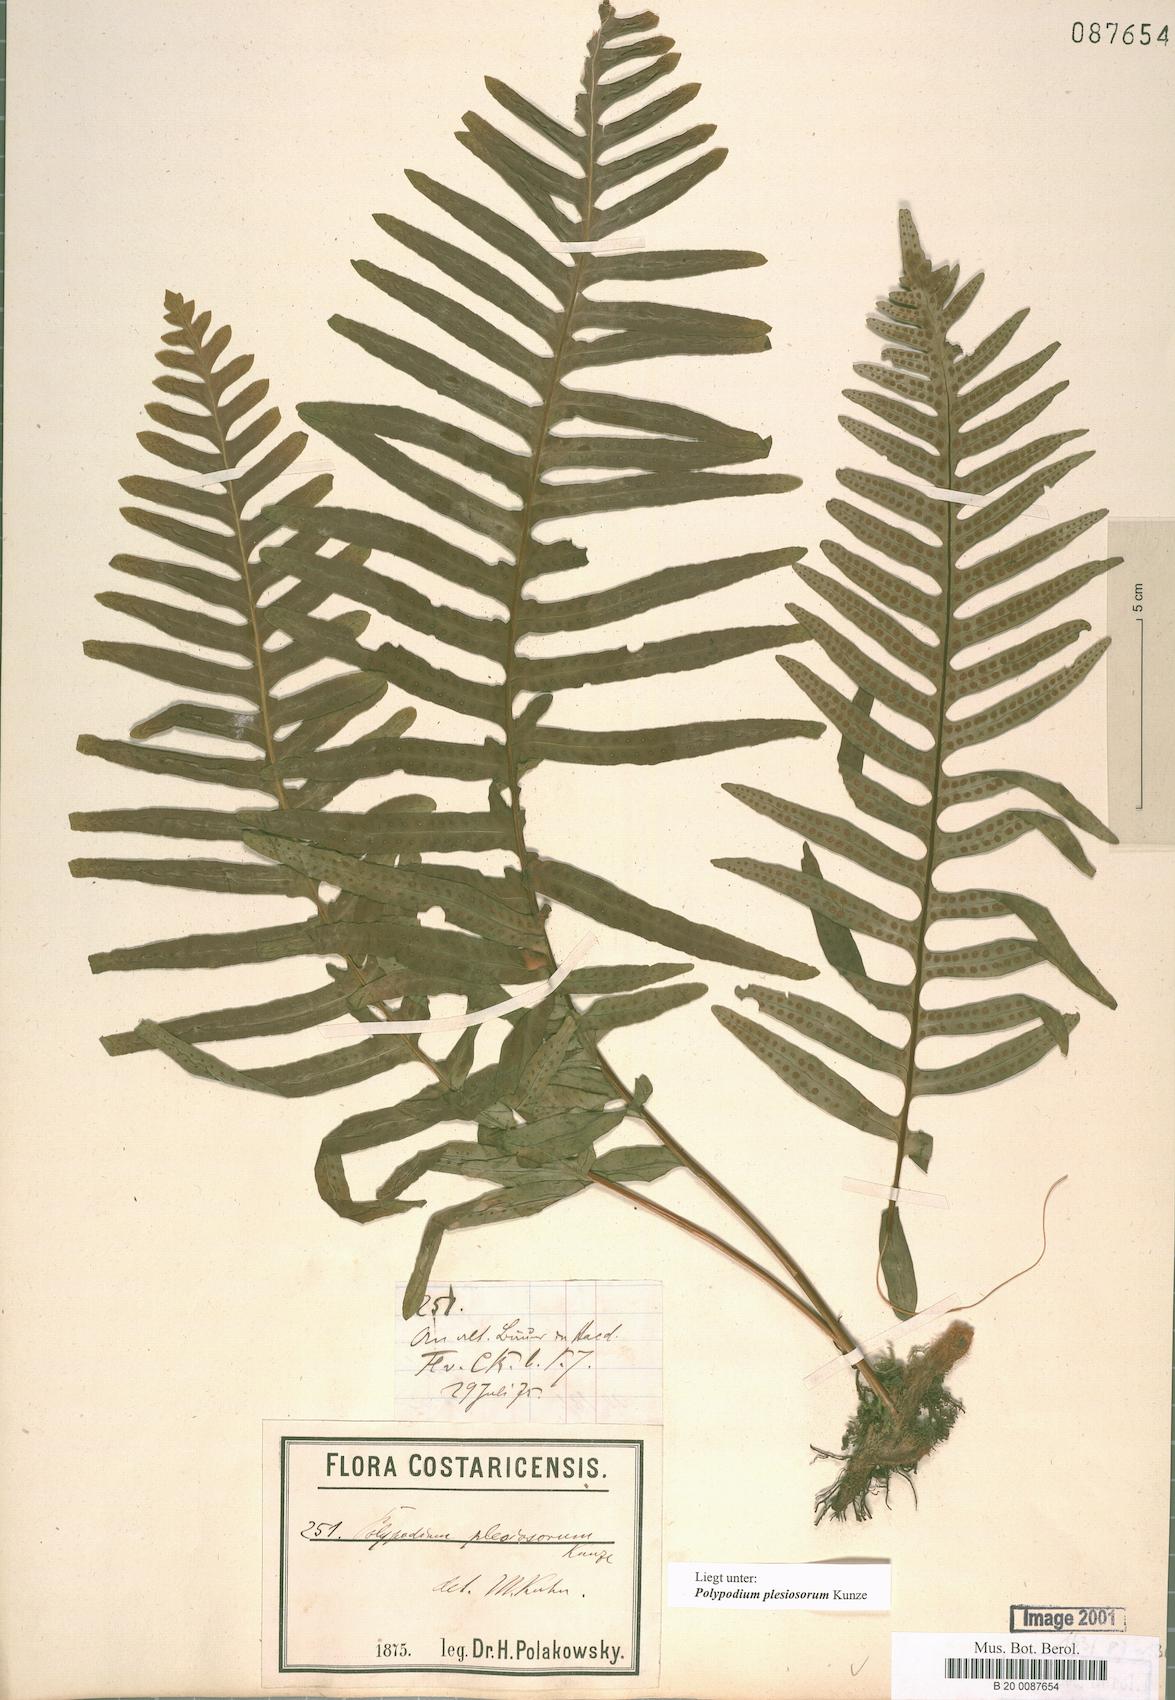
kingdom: Plantae
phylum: Tracheophyta
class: Polypodiopsida
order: Polypodiales
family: Polypodiaceae
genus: Polypodium
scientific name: Polypodium plesiosorum
